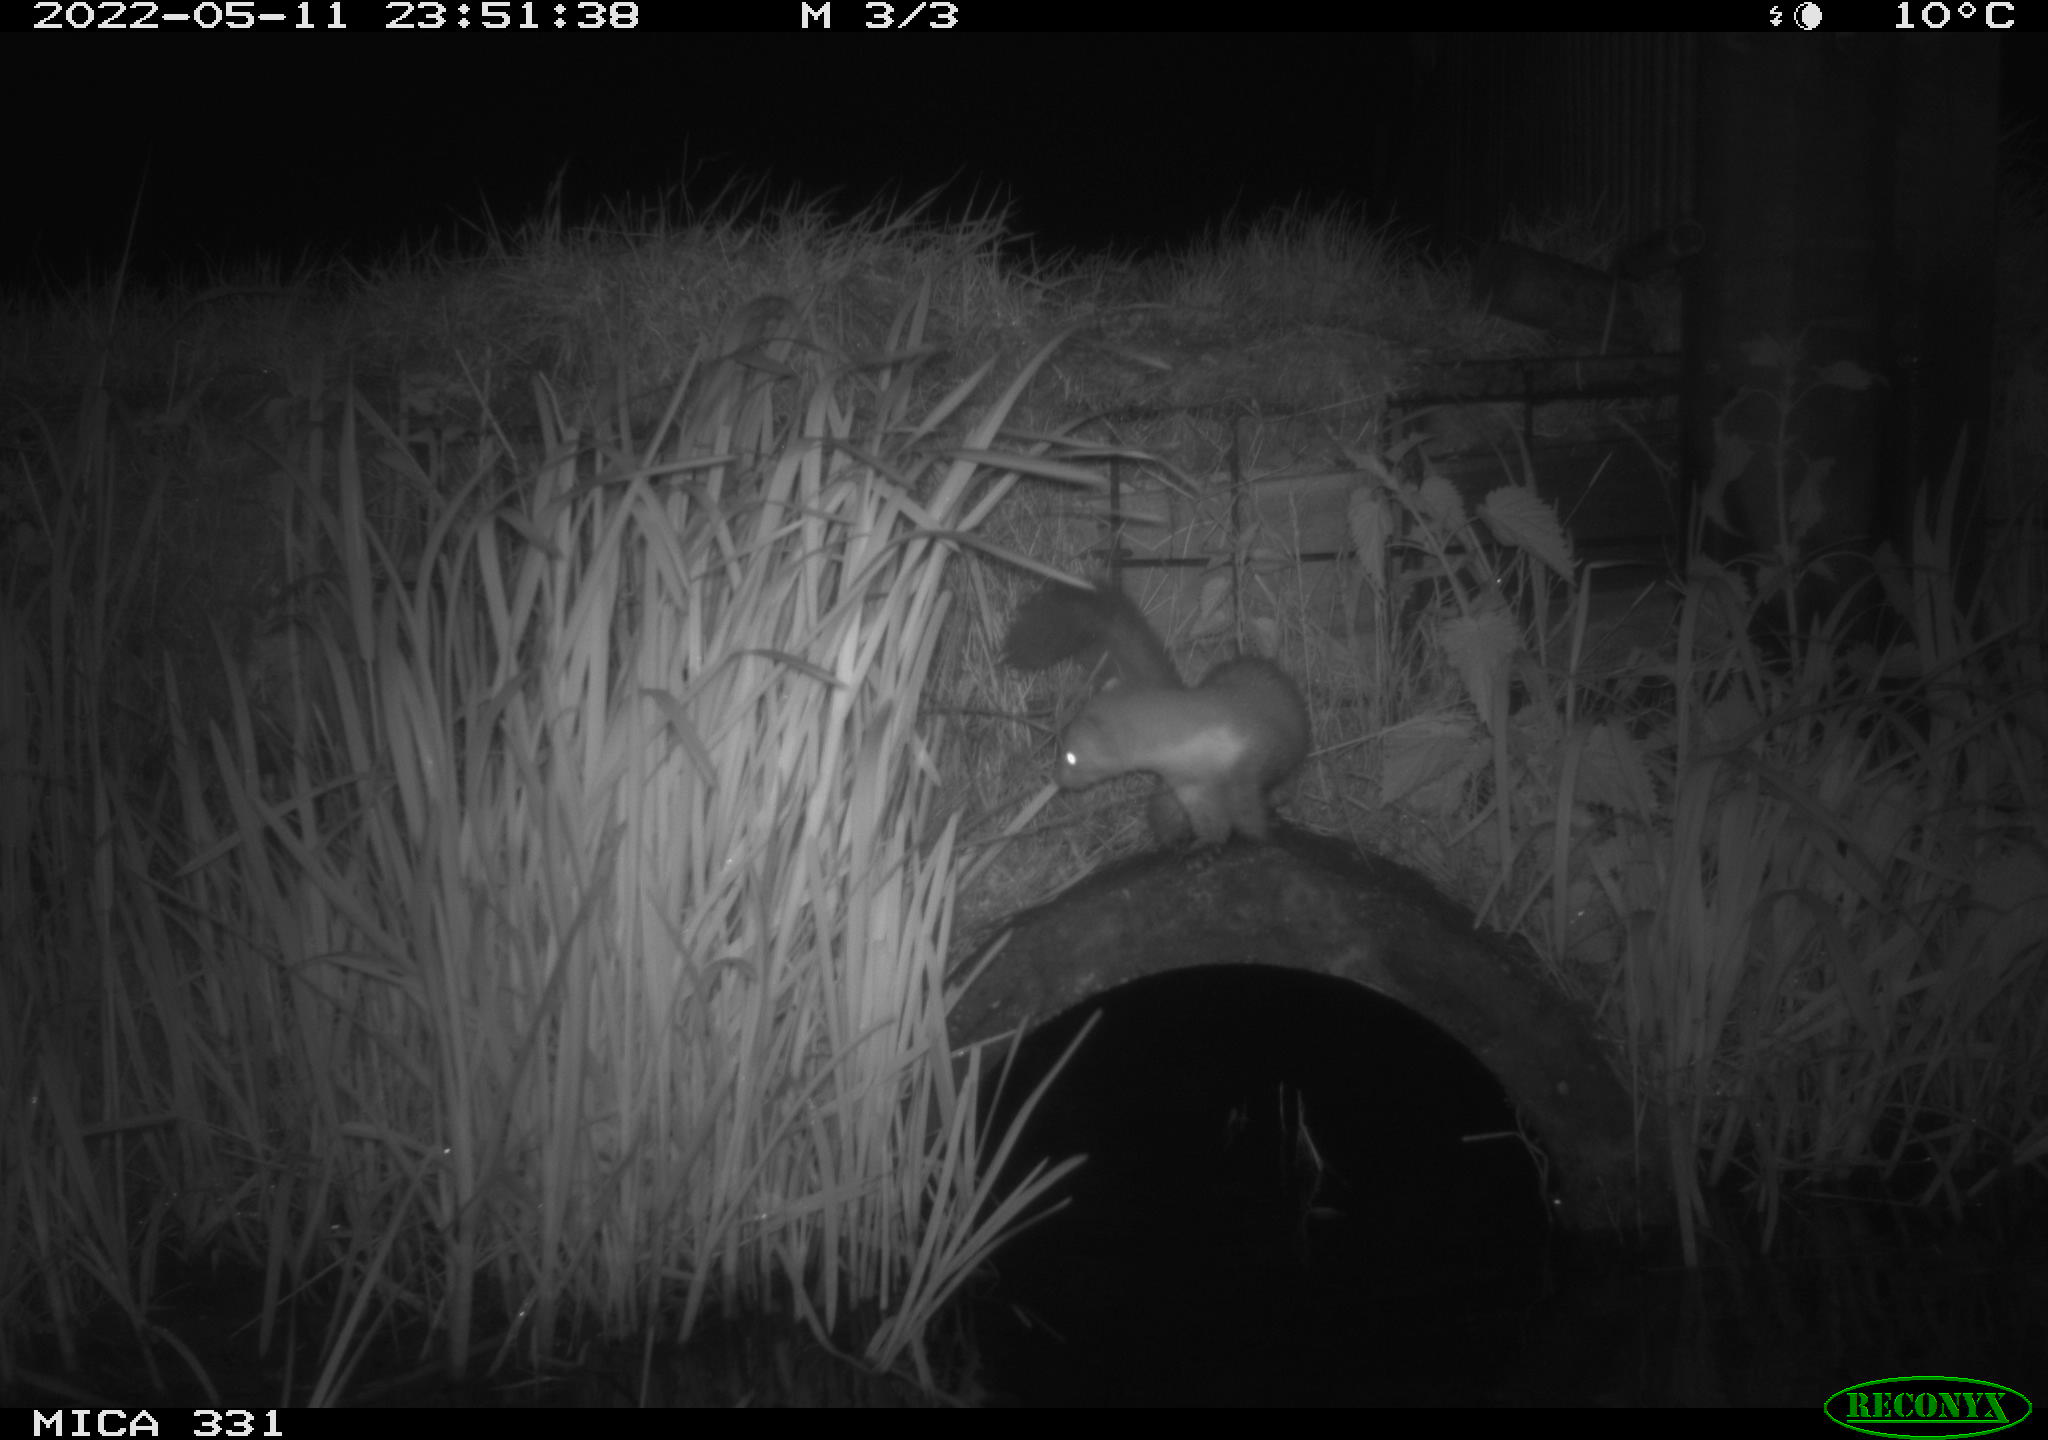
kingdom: Animalia
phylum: Chordata
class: Mammalia
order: Carnivora
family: Mustelidae
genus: Martes
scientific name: Martes foina
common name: Beech marten
